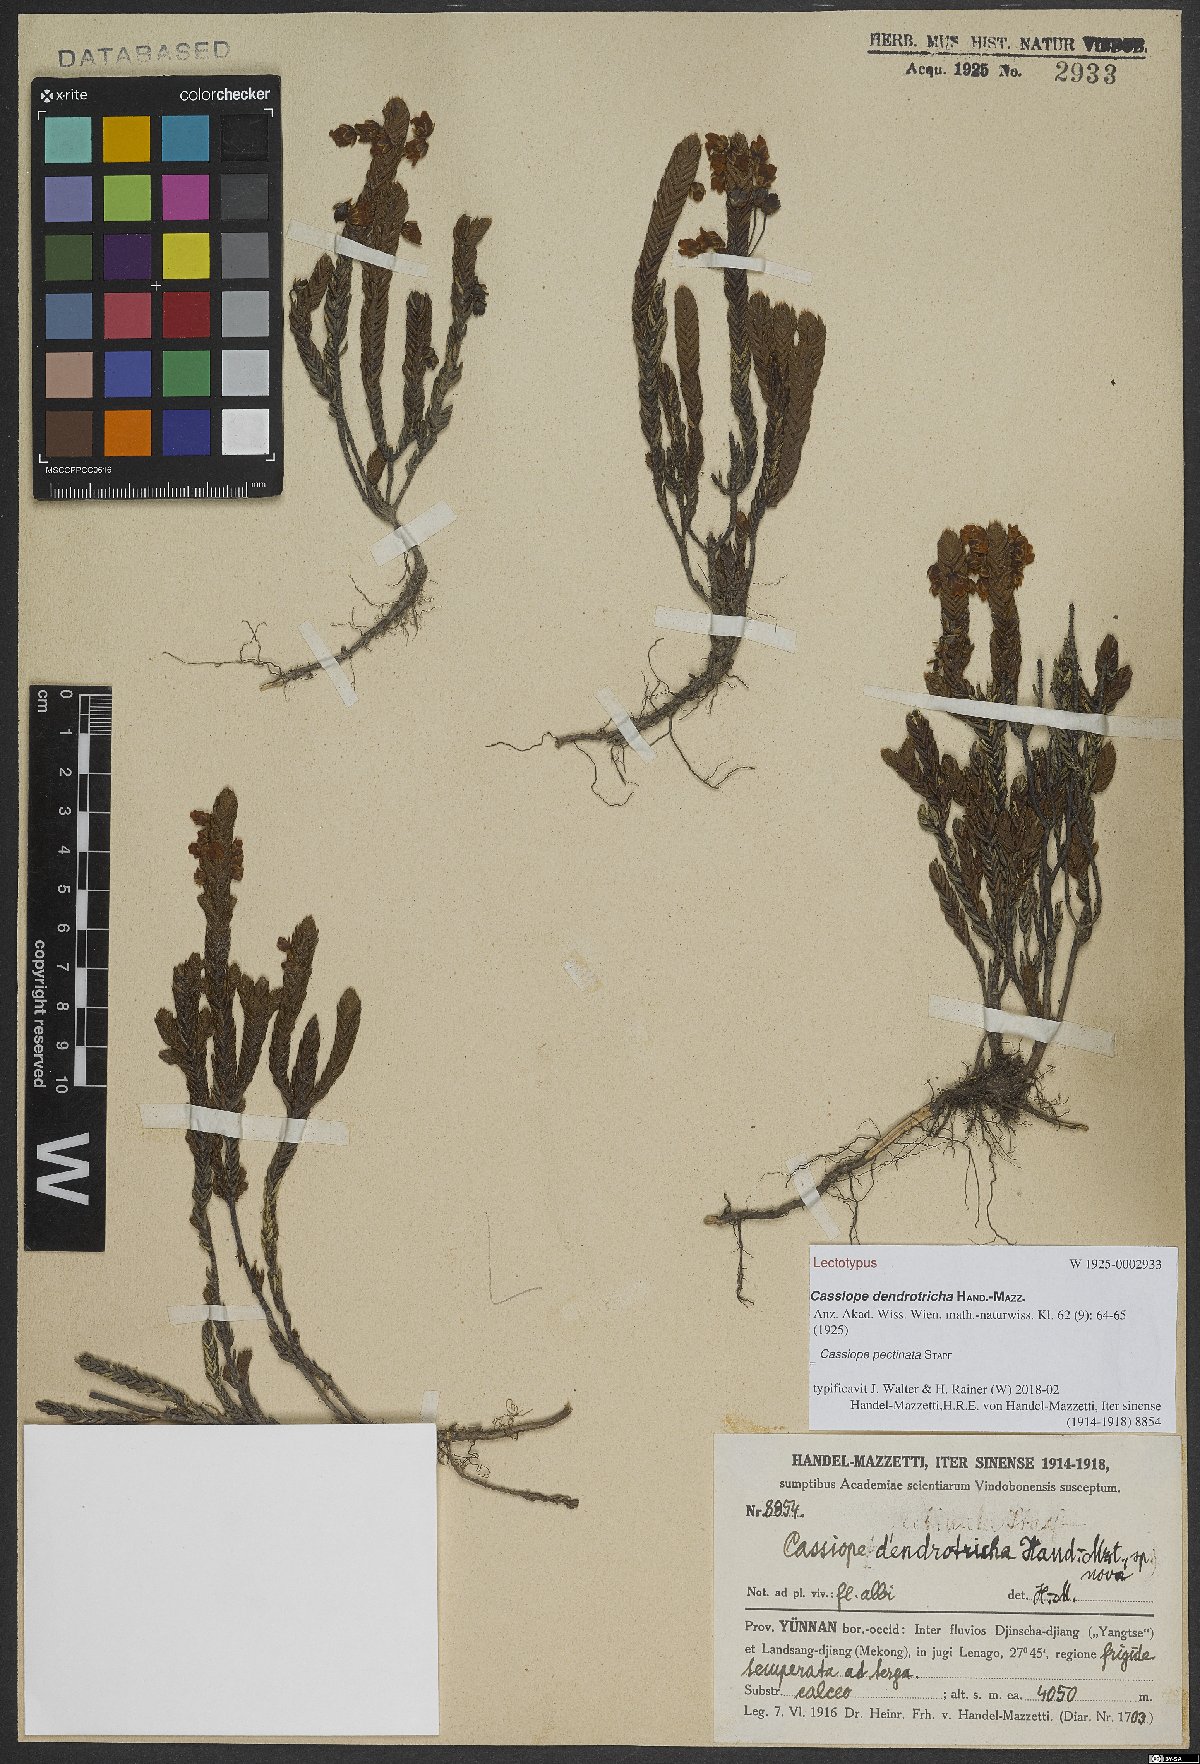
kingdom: Plantae
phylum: Tracheophyta
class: Magnoliopsida
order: Ericales
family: Ericaceae
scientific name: Ericaceae
